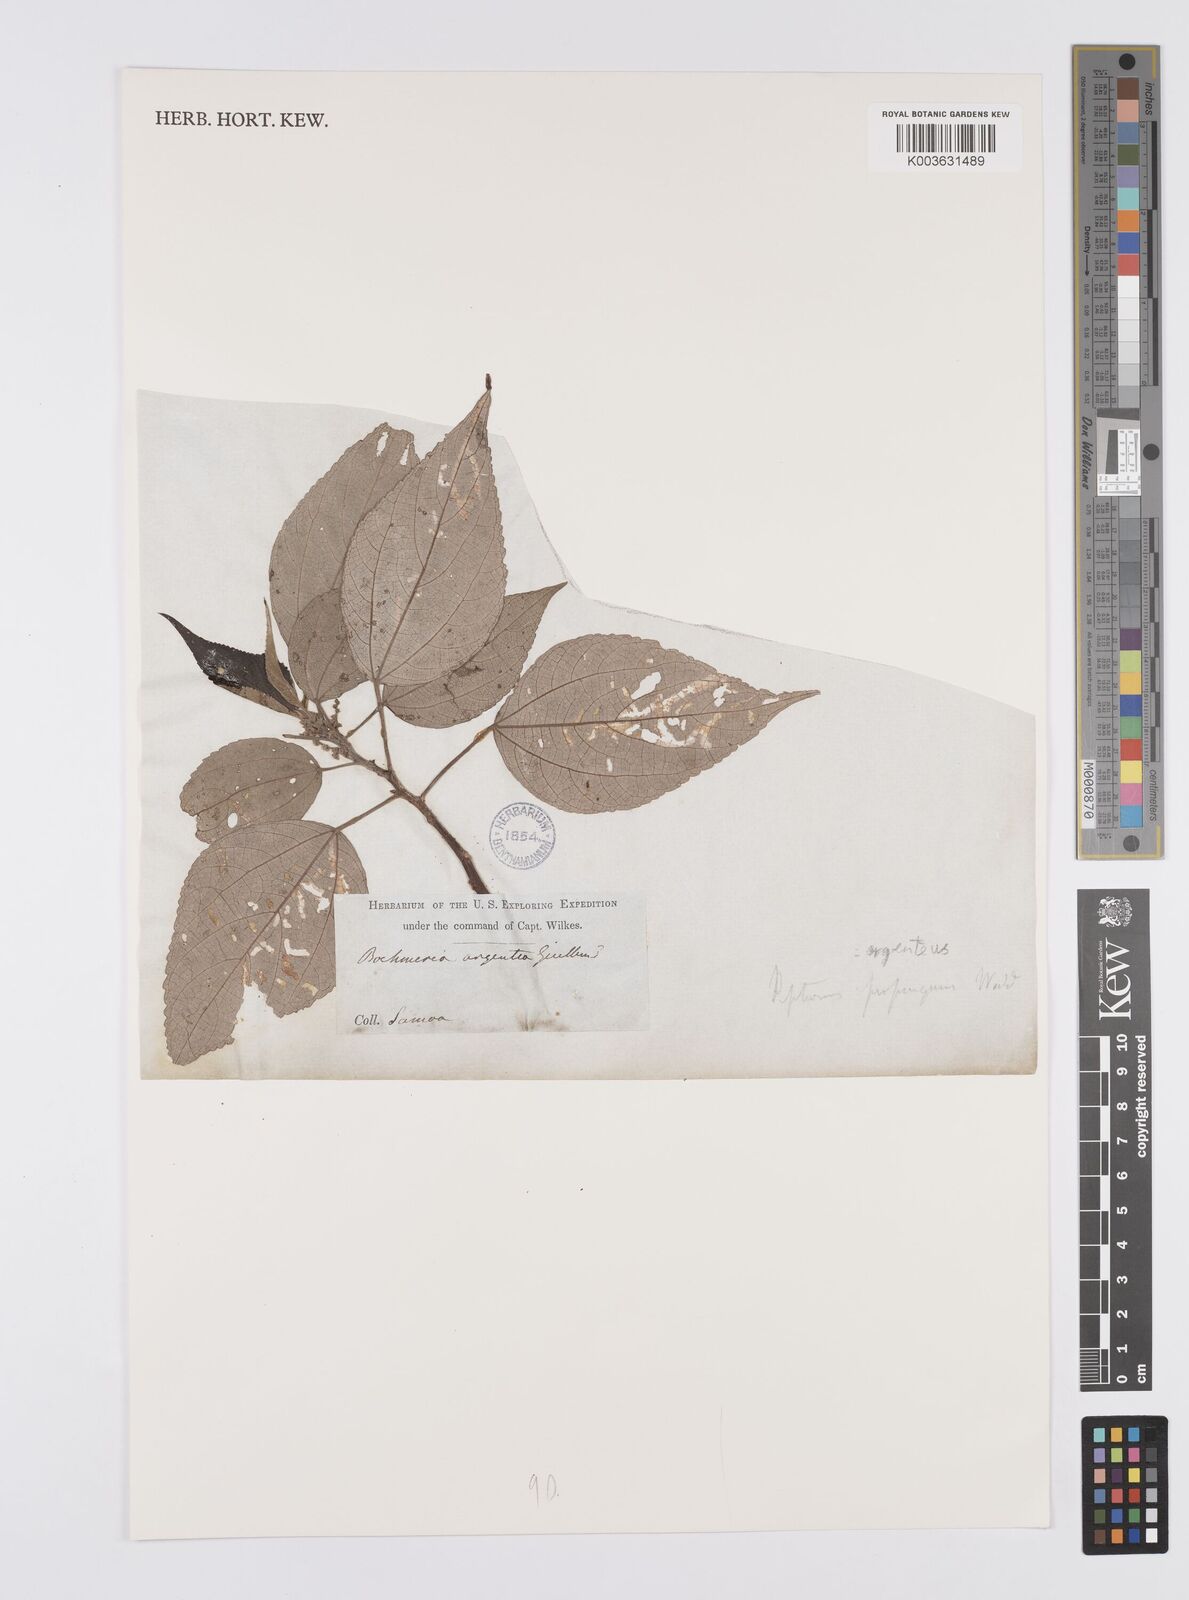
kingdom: Plantae
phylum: Tracheophyta
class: Magnoliopsida
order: Rosales
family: Urticaceae
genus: Pipturus
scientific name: Pipturus argenteus
